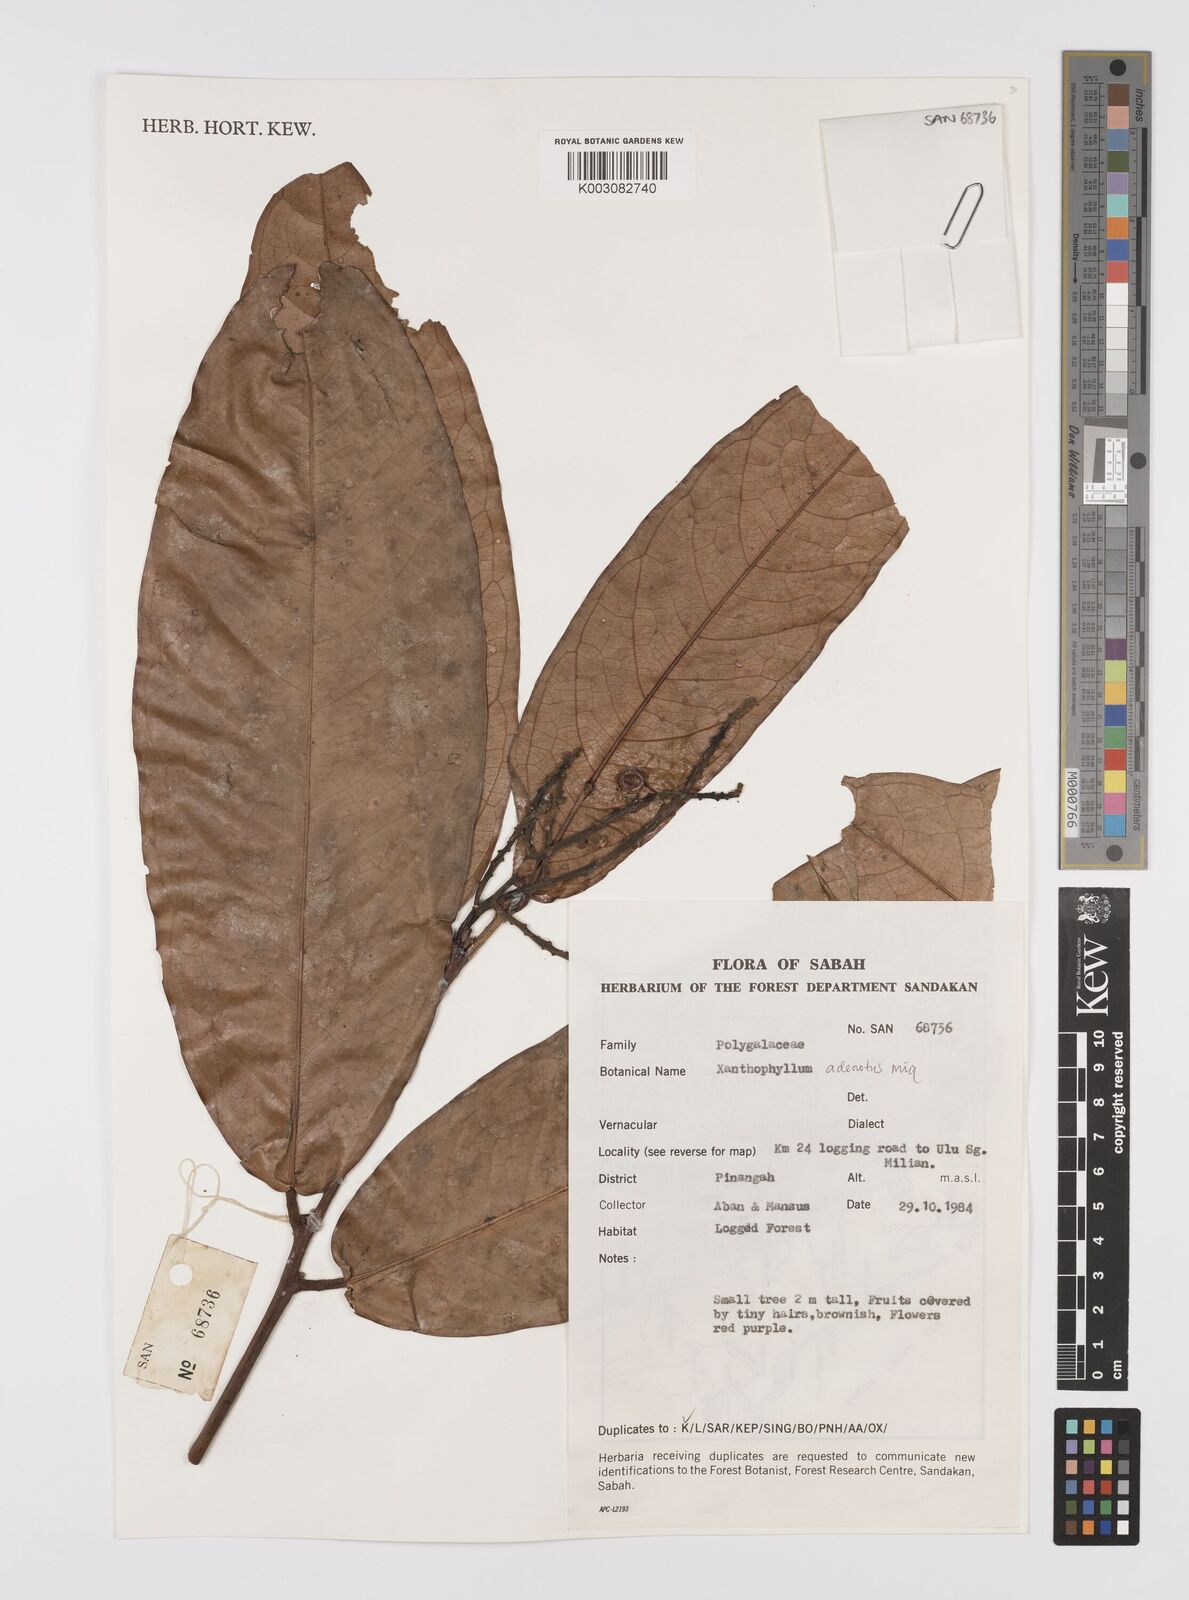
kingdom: Plantae
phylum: Tracheophyta
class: Magnoliopsida
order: Fabales
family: Polygalaceae
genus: Xanthophyllum
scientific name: Xanthophyllum adenotus
